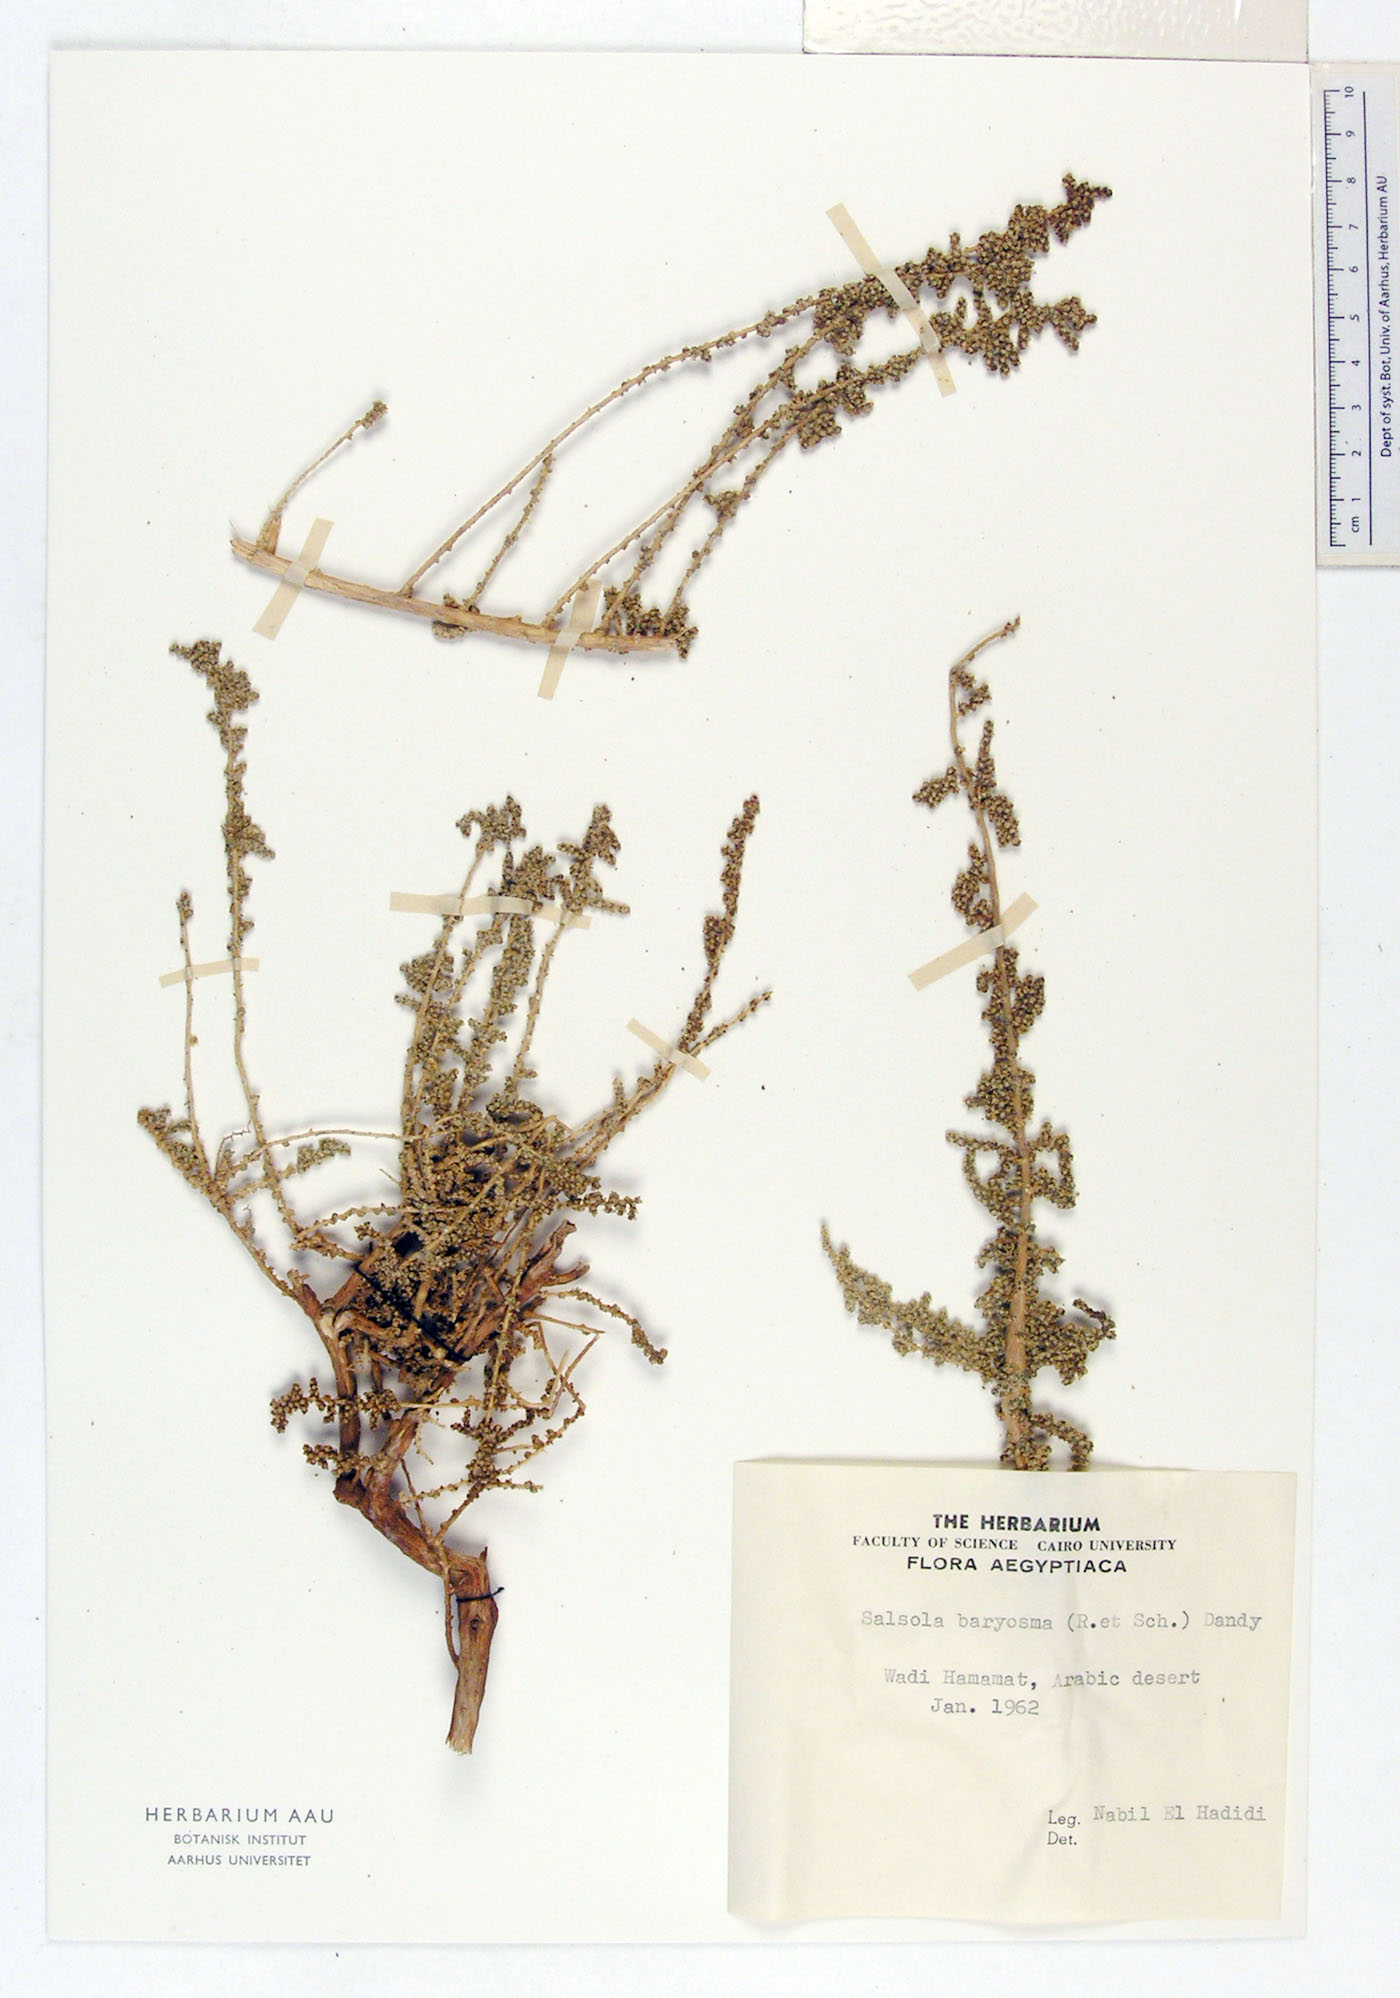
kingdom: Plantae
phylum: Tracheophyta
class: Magnoliopsida
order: Caryophyllales
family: Amaranthaceae
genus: Caroxylon
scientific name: Caroxylon imbricatum
